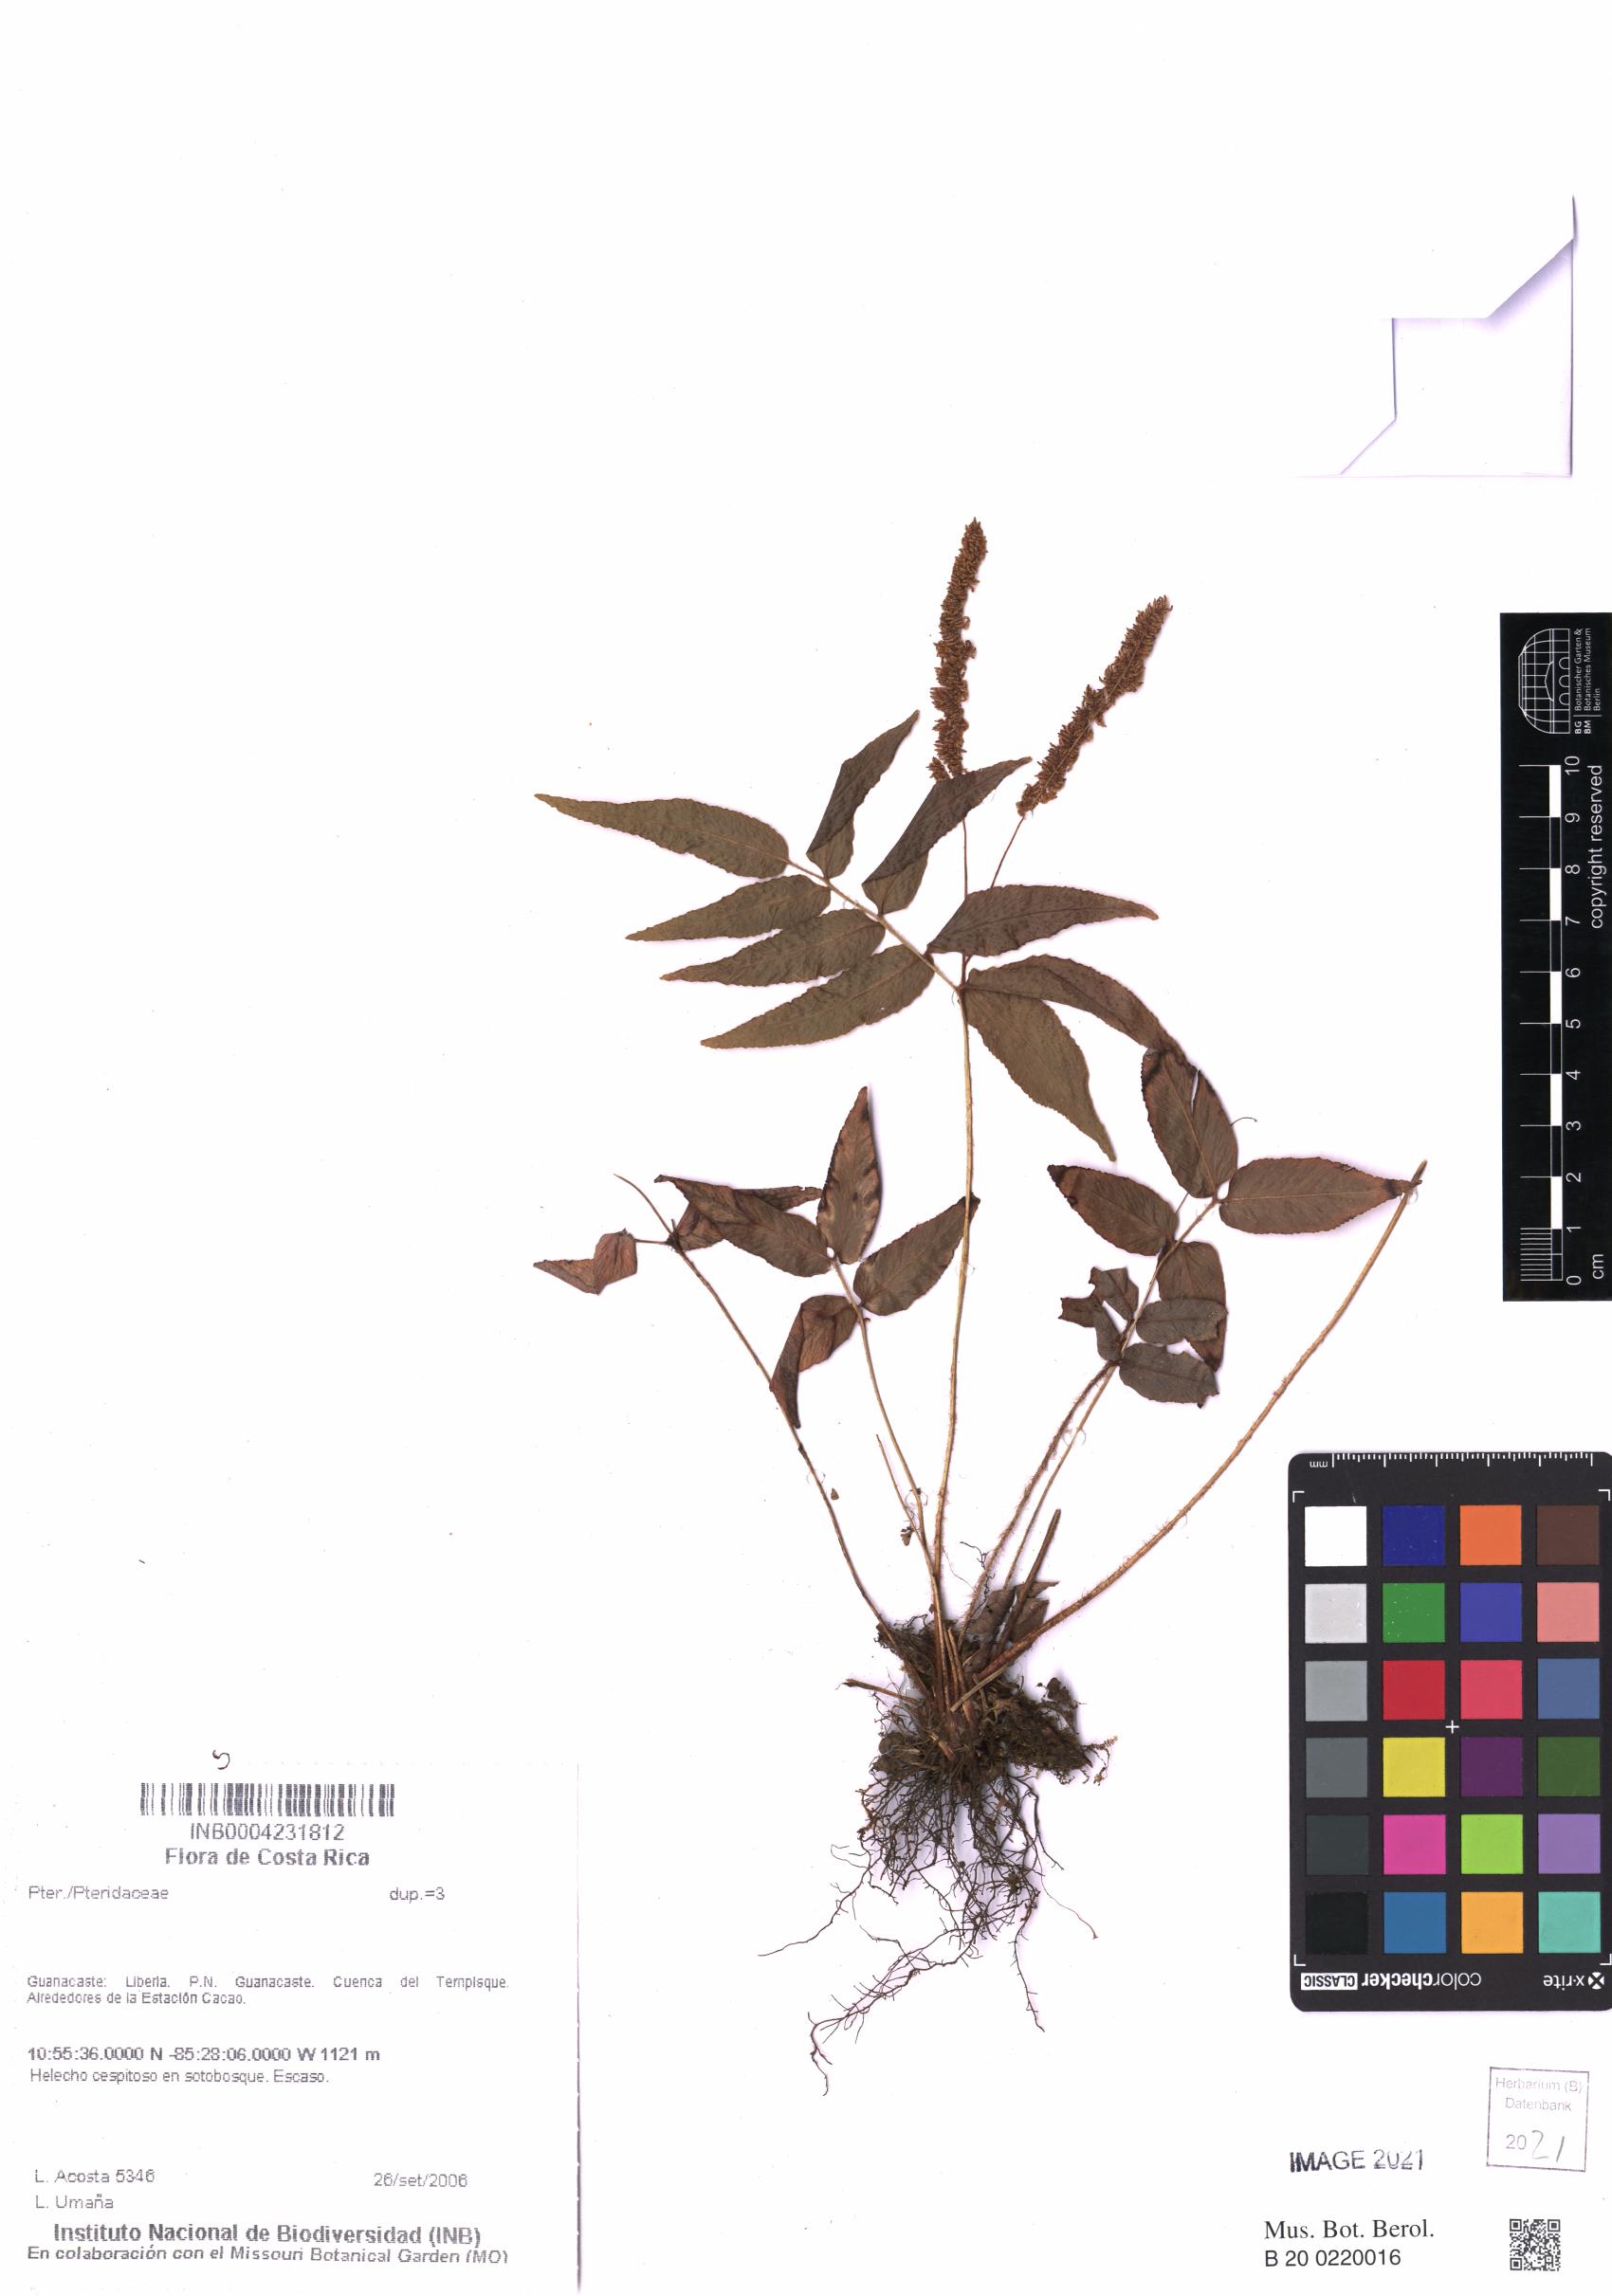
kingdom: Plantae
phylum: Tracheophyta
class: Polypodiopsida
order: Polypodiales
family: Pteridaceae
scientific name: Pteridaceae
